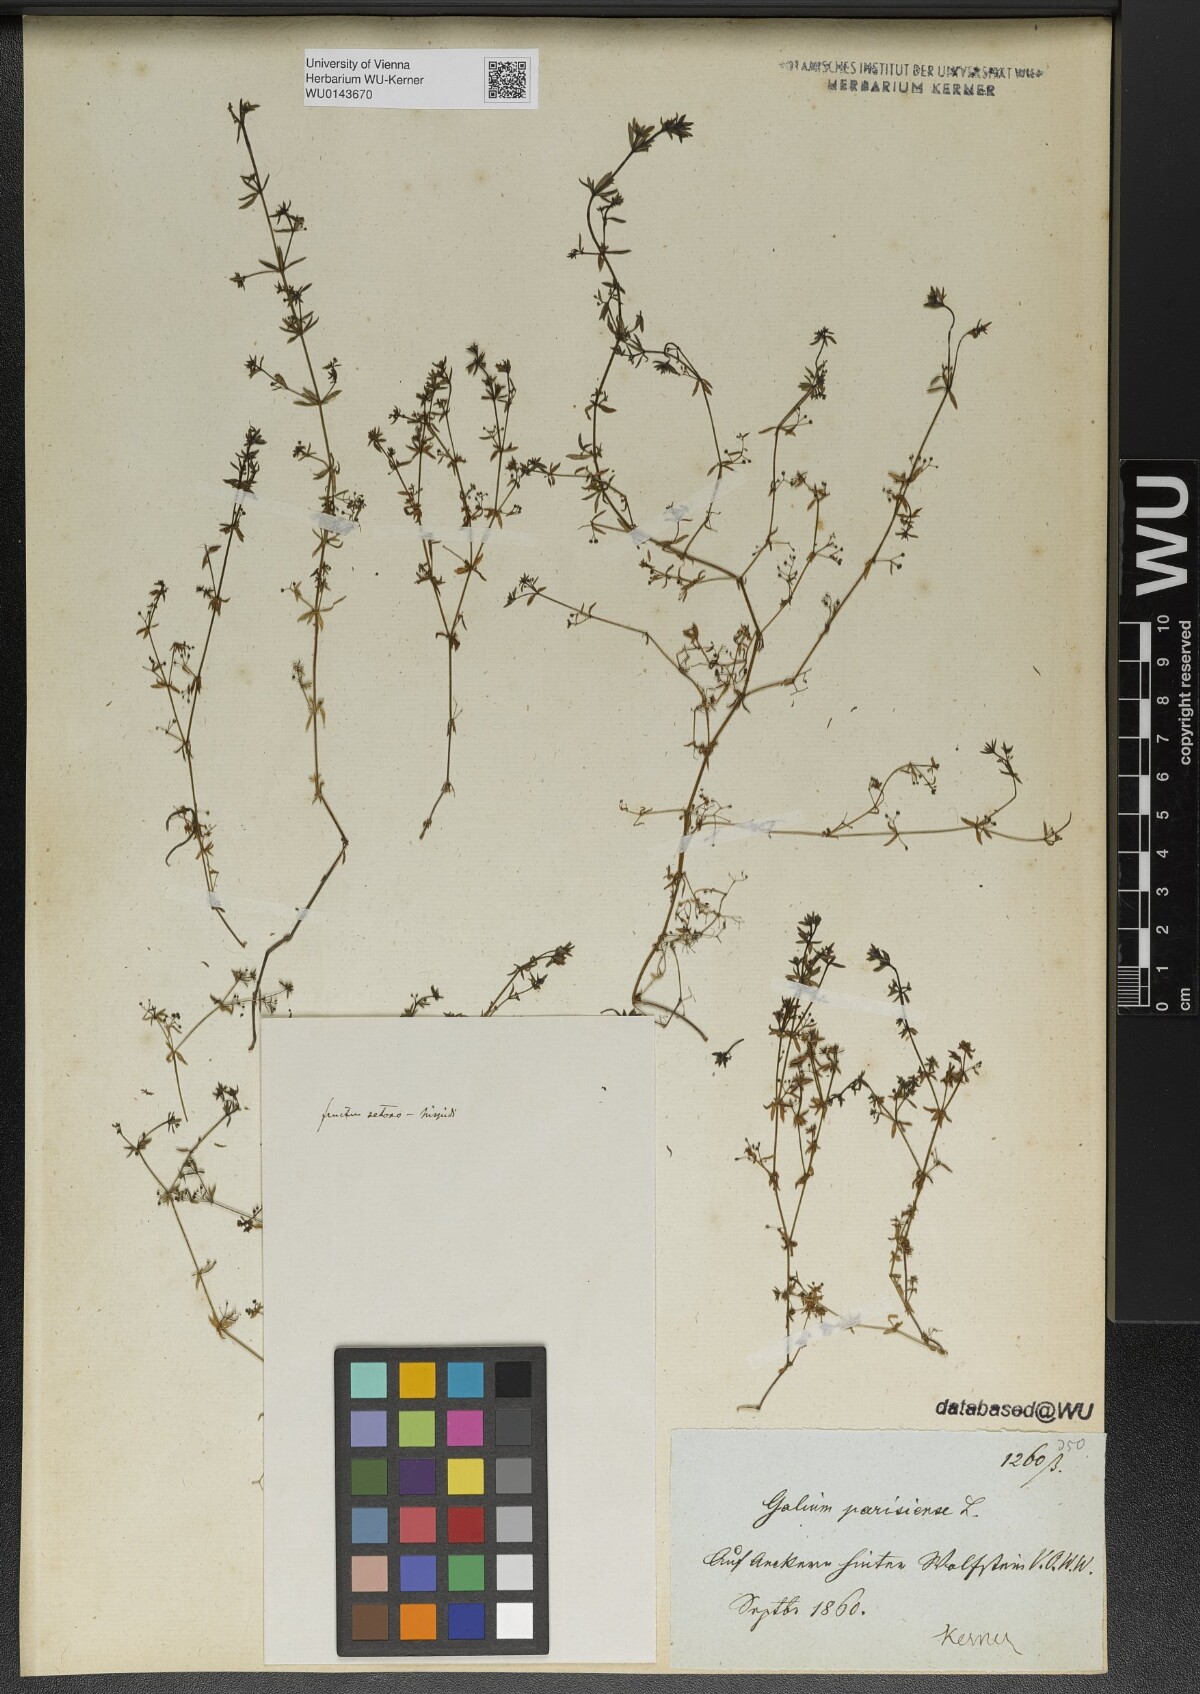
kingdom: Plantae
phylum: Tracheophyta
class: Magnoliopsida
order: Gentianales
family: Rubiaceae
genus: Galium
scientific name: Galium parisiense
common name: Wall bedstraw
